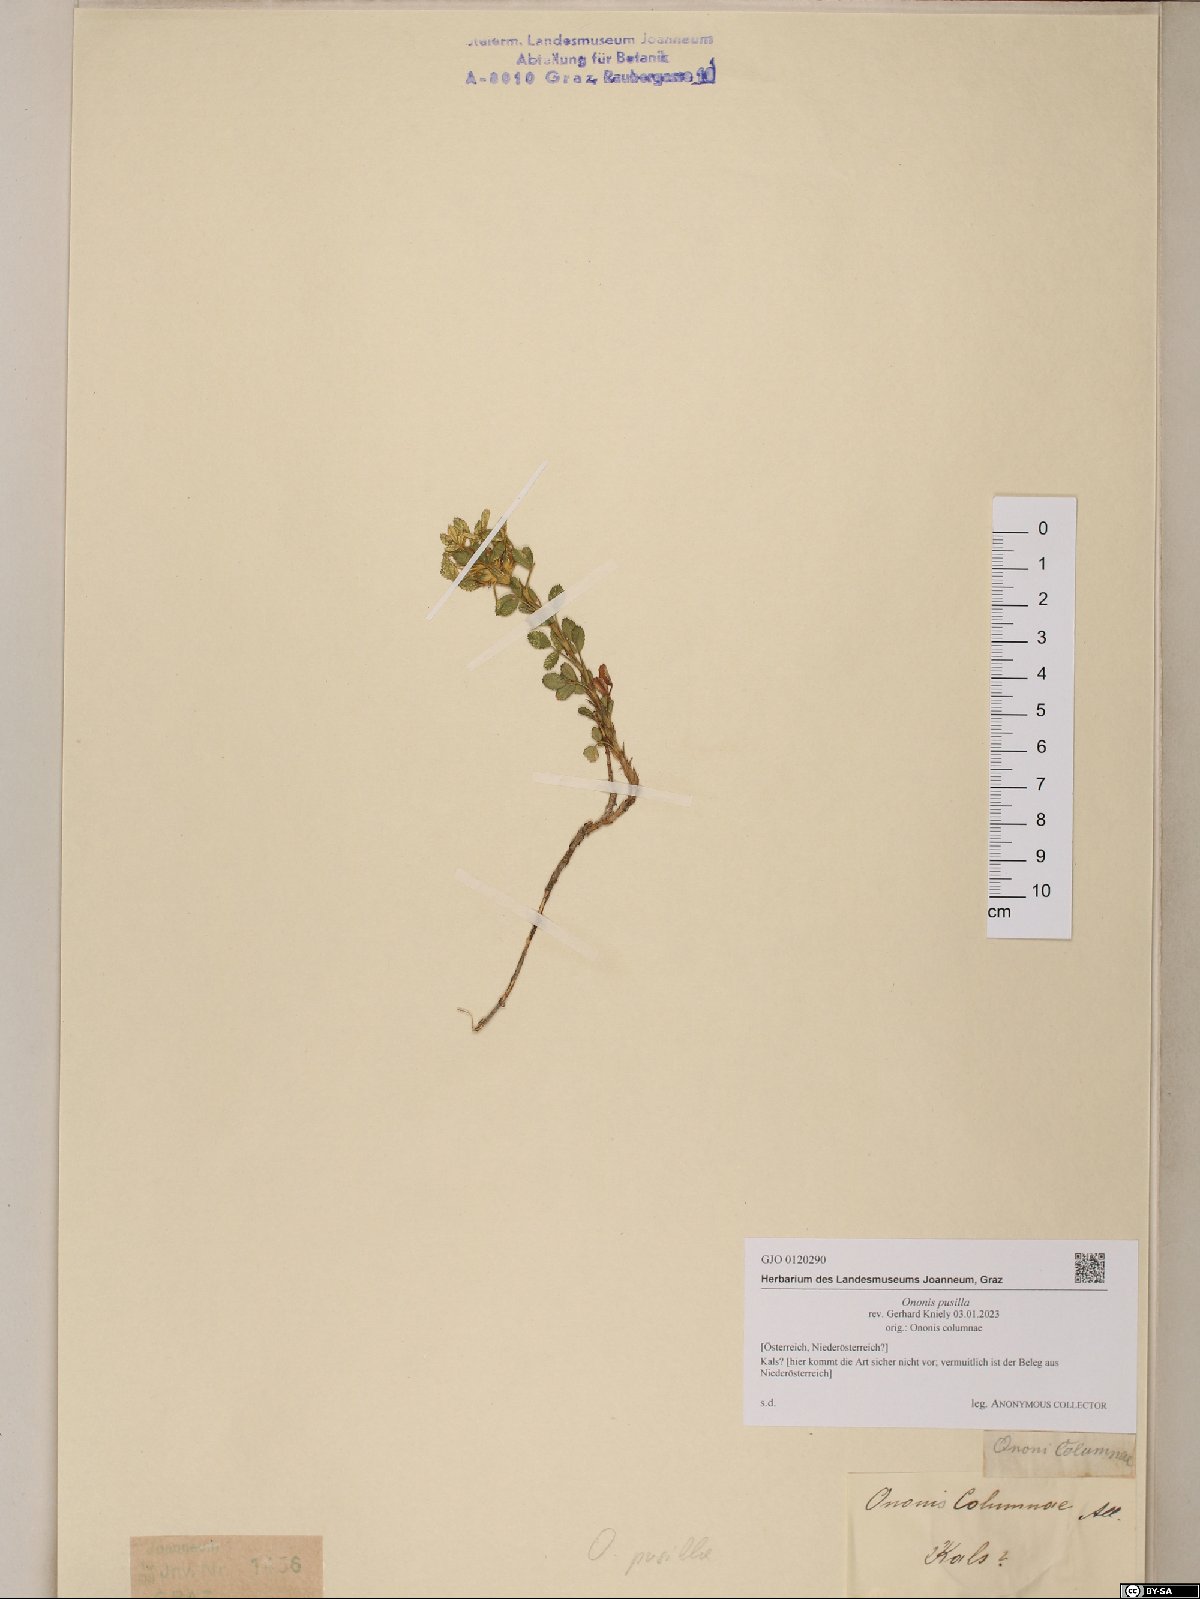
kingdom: Plantae
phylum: Tracheophyta
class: Magnoliopsida
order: Fabales
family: Fabaceae
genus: Ononis
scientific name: Ononis pusilla
